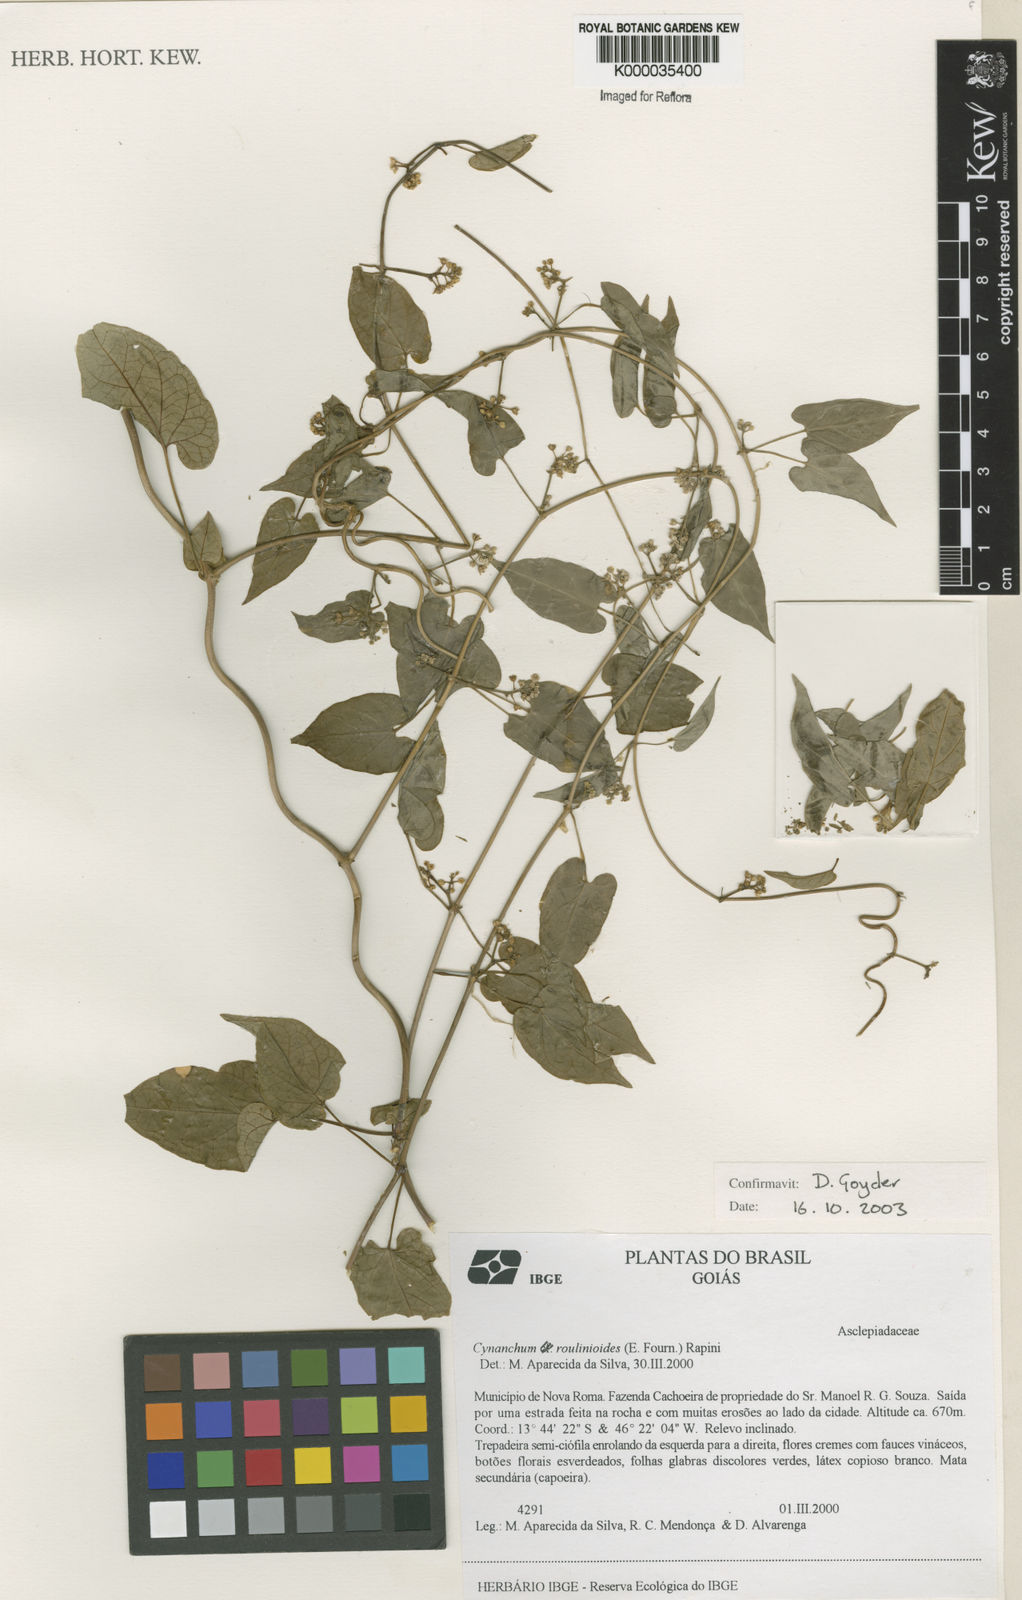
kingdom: Plantae
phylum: Tracheophyta
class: Magnoliopsida
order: Gentianales
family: Apocynaceae
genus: Cynanchum
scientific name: Cynanchum roulinioides
